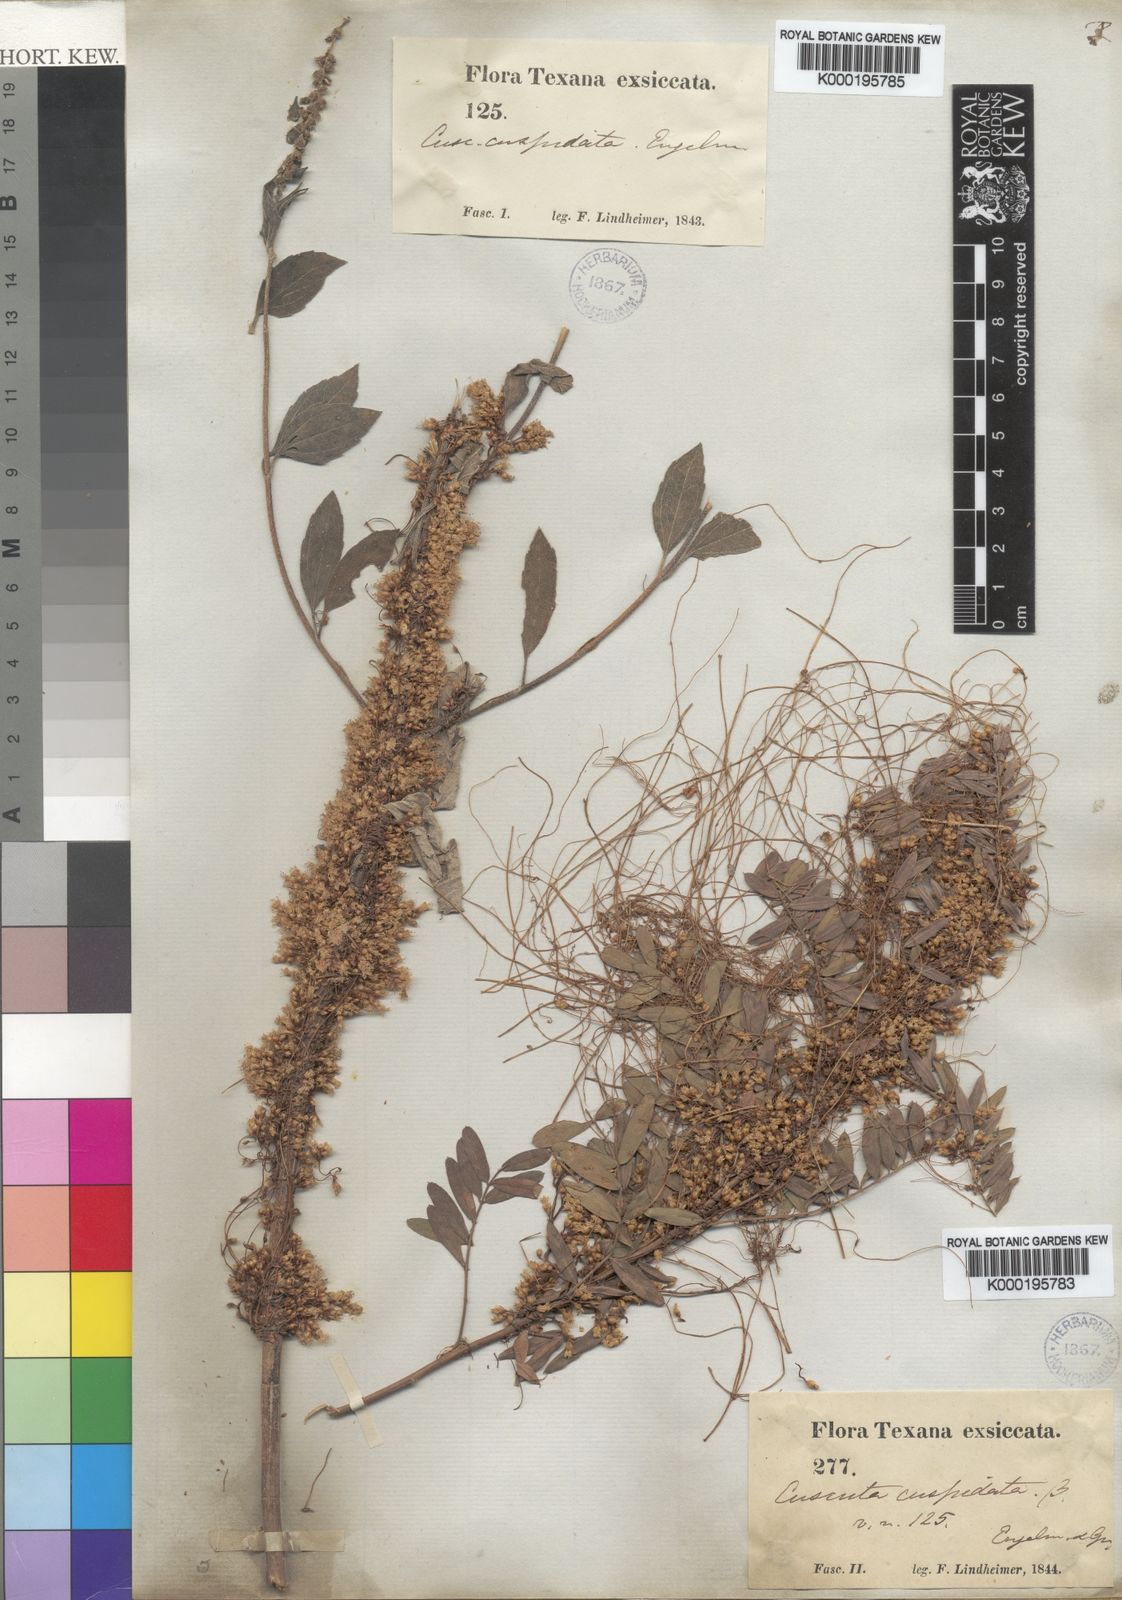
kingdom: Plantae
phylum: Tracheophyta
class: Magnoliopsida
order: Solanales
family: Convolvulaceae
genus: Cuscuta
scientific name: Cuscuta cuspidata
